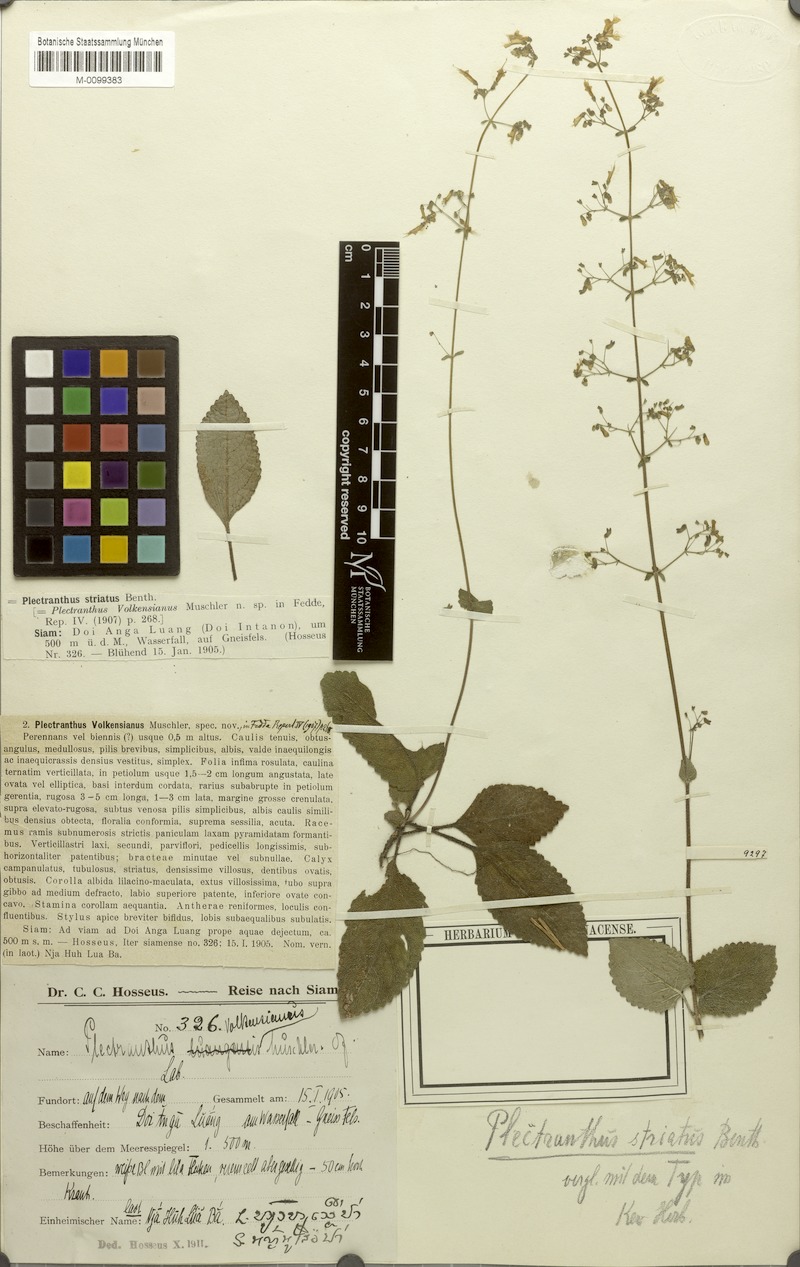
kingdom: Plantae
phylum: Tracheophyta
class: Magnoliopsida
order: Lamiales
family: Lamiaceae
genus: Isodon
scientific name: Isodon lophanthoides
